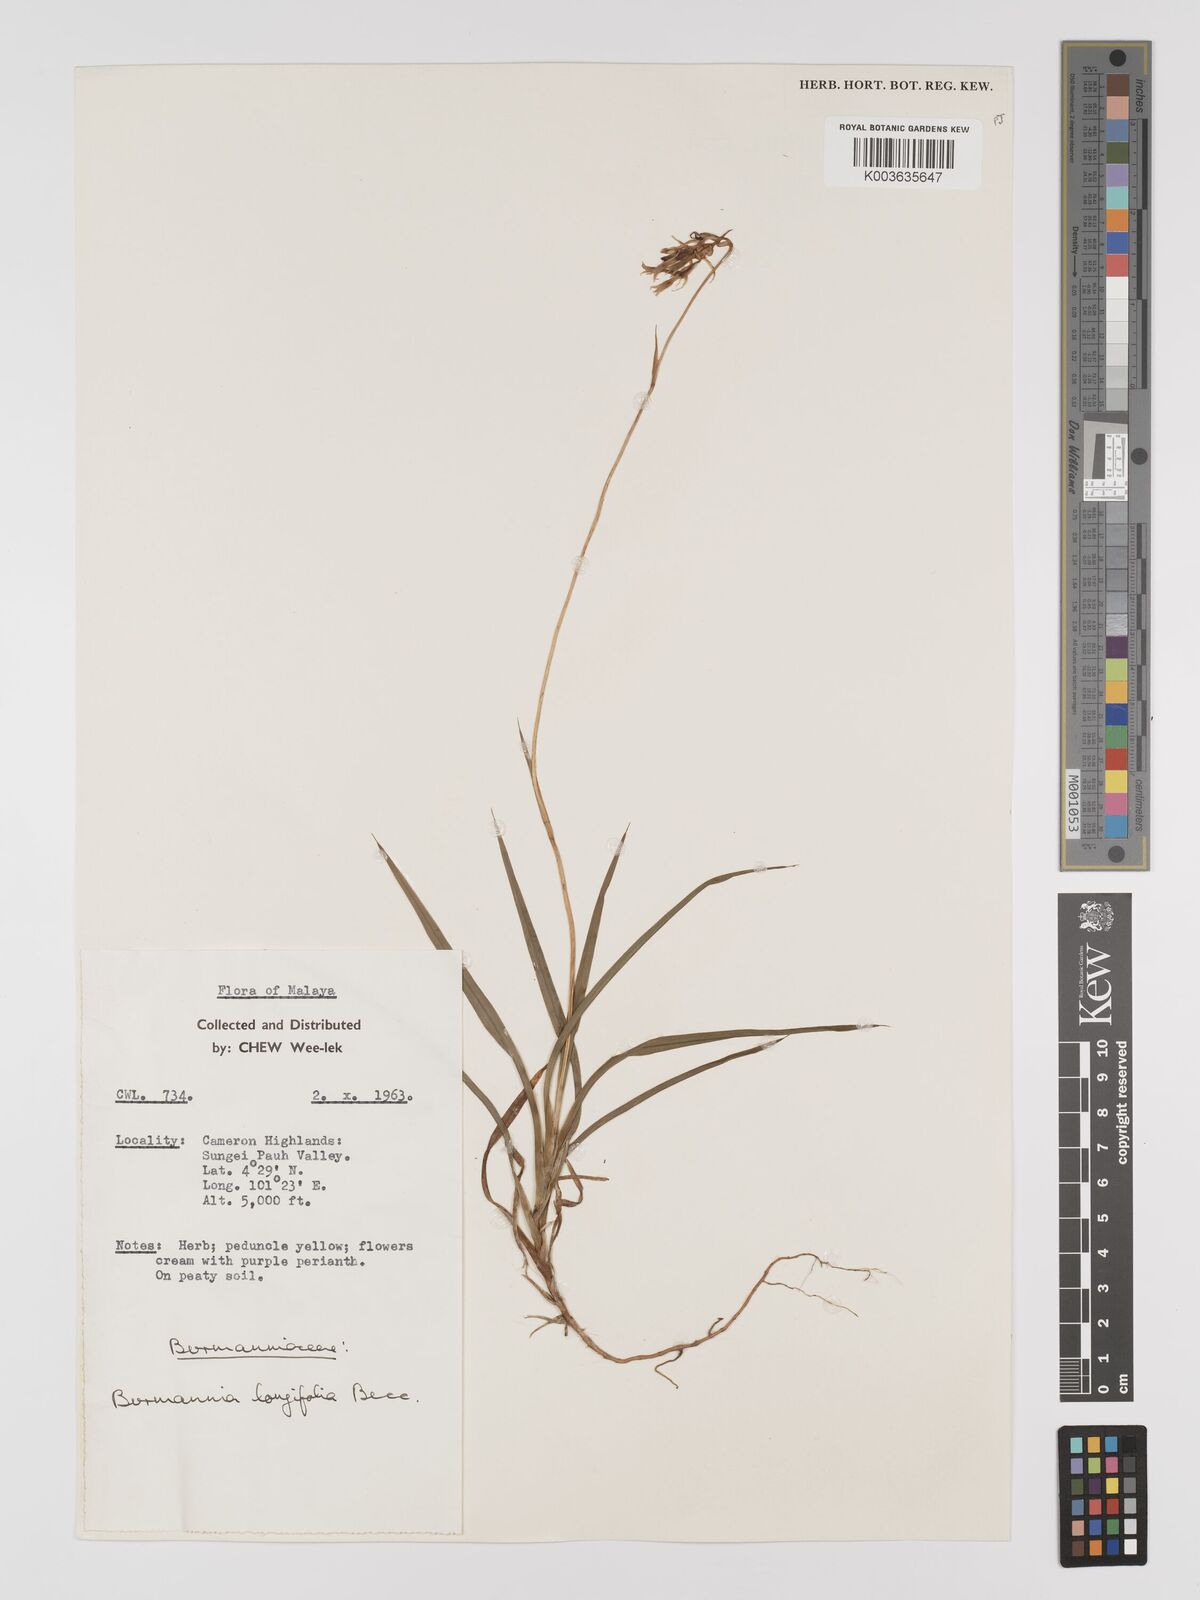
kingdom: Plantae
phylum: Tracheophyta
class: Liliopsida
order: Dioscoreales
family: Burmanniaceae
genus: Burmannia
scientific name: Burmannia longifolia
